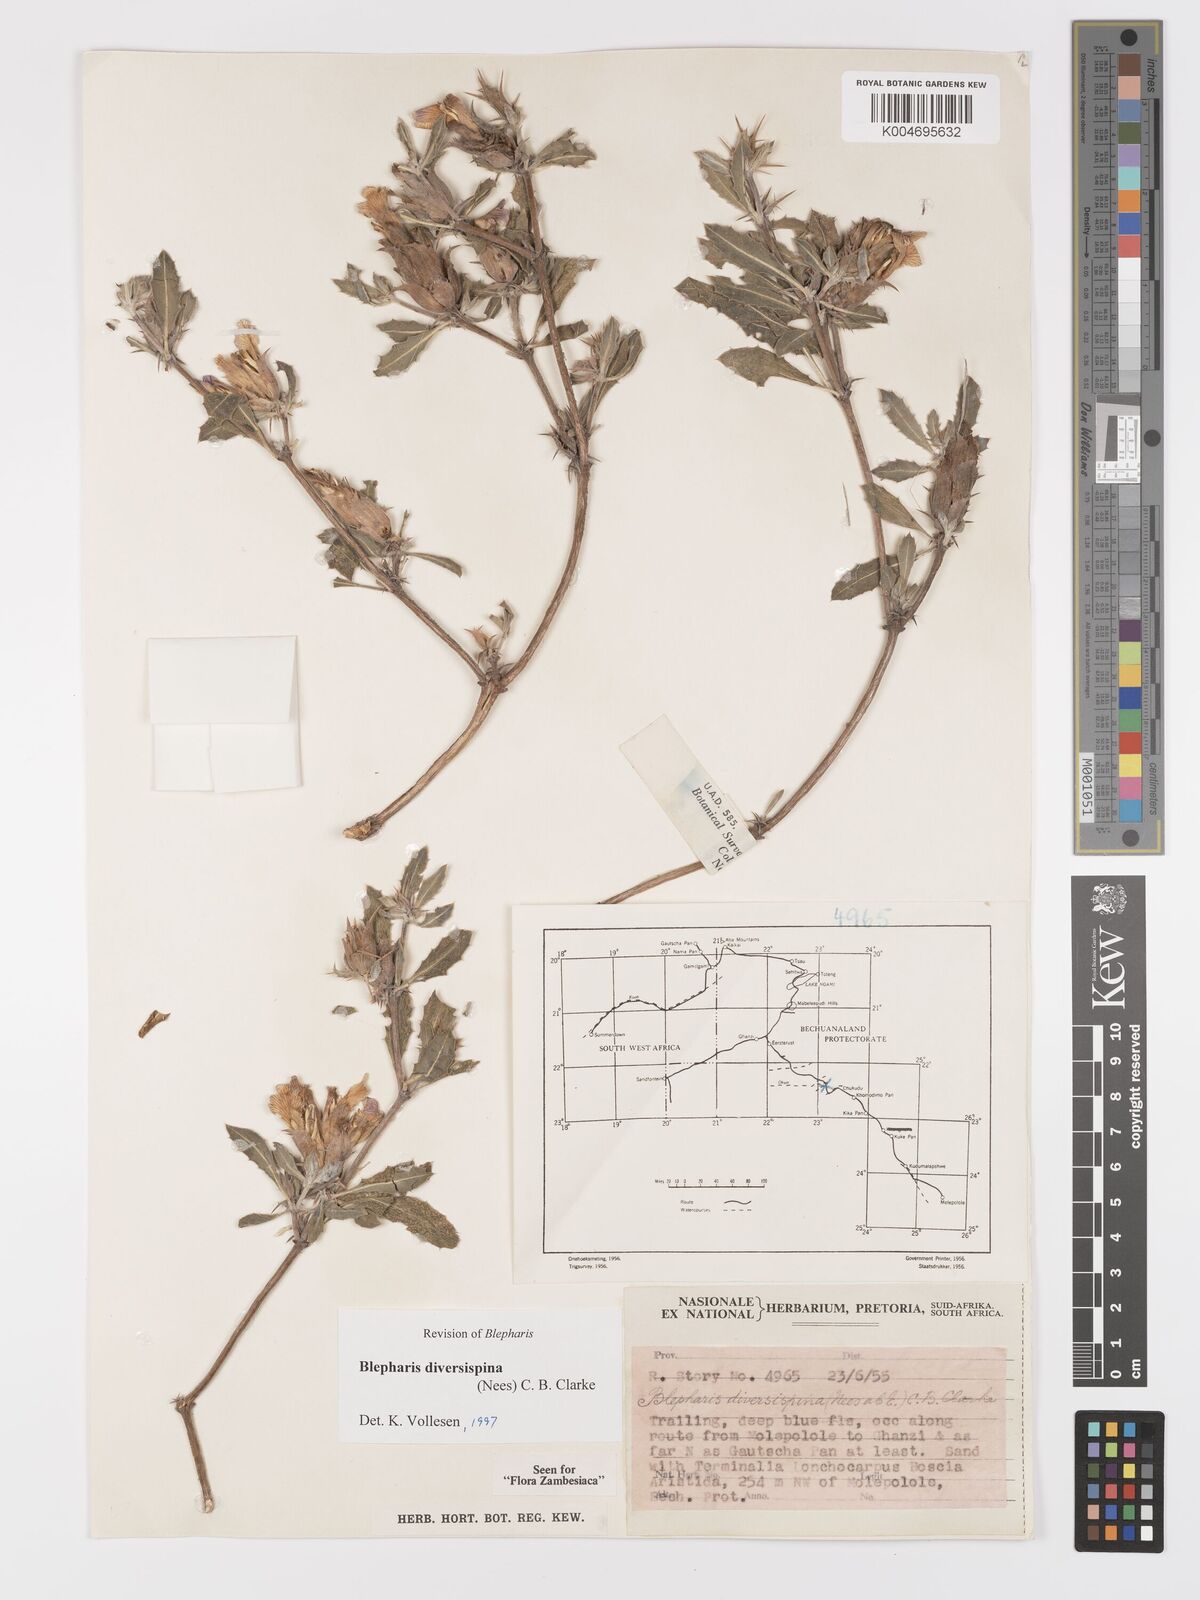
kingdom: Plantae
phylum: Tracheophyta
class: Magnoliopsida
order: Lamiales
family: Acanthaceae
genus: Blepharis
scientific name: Blepharis diversispina
